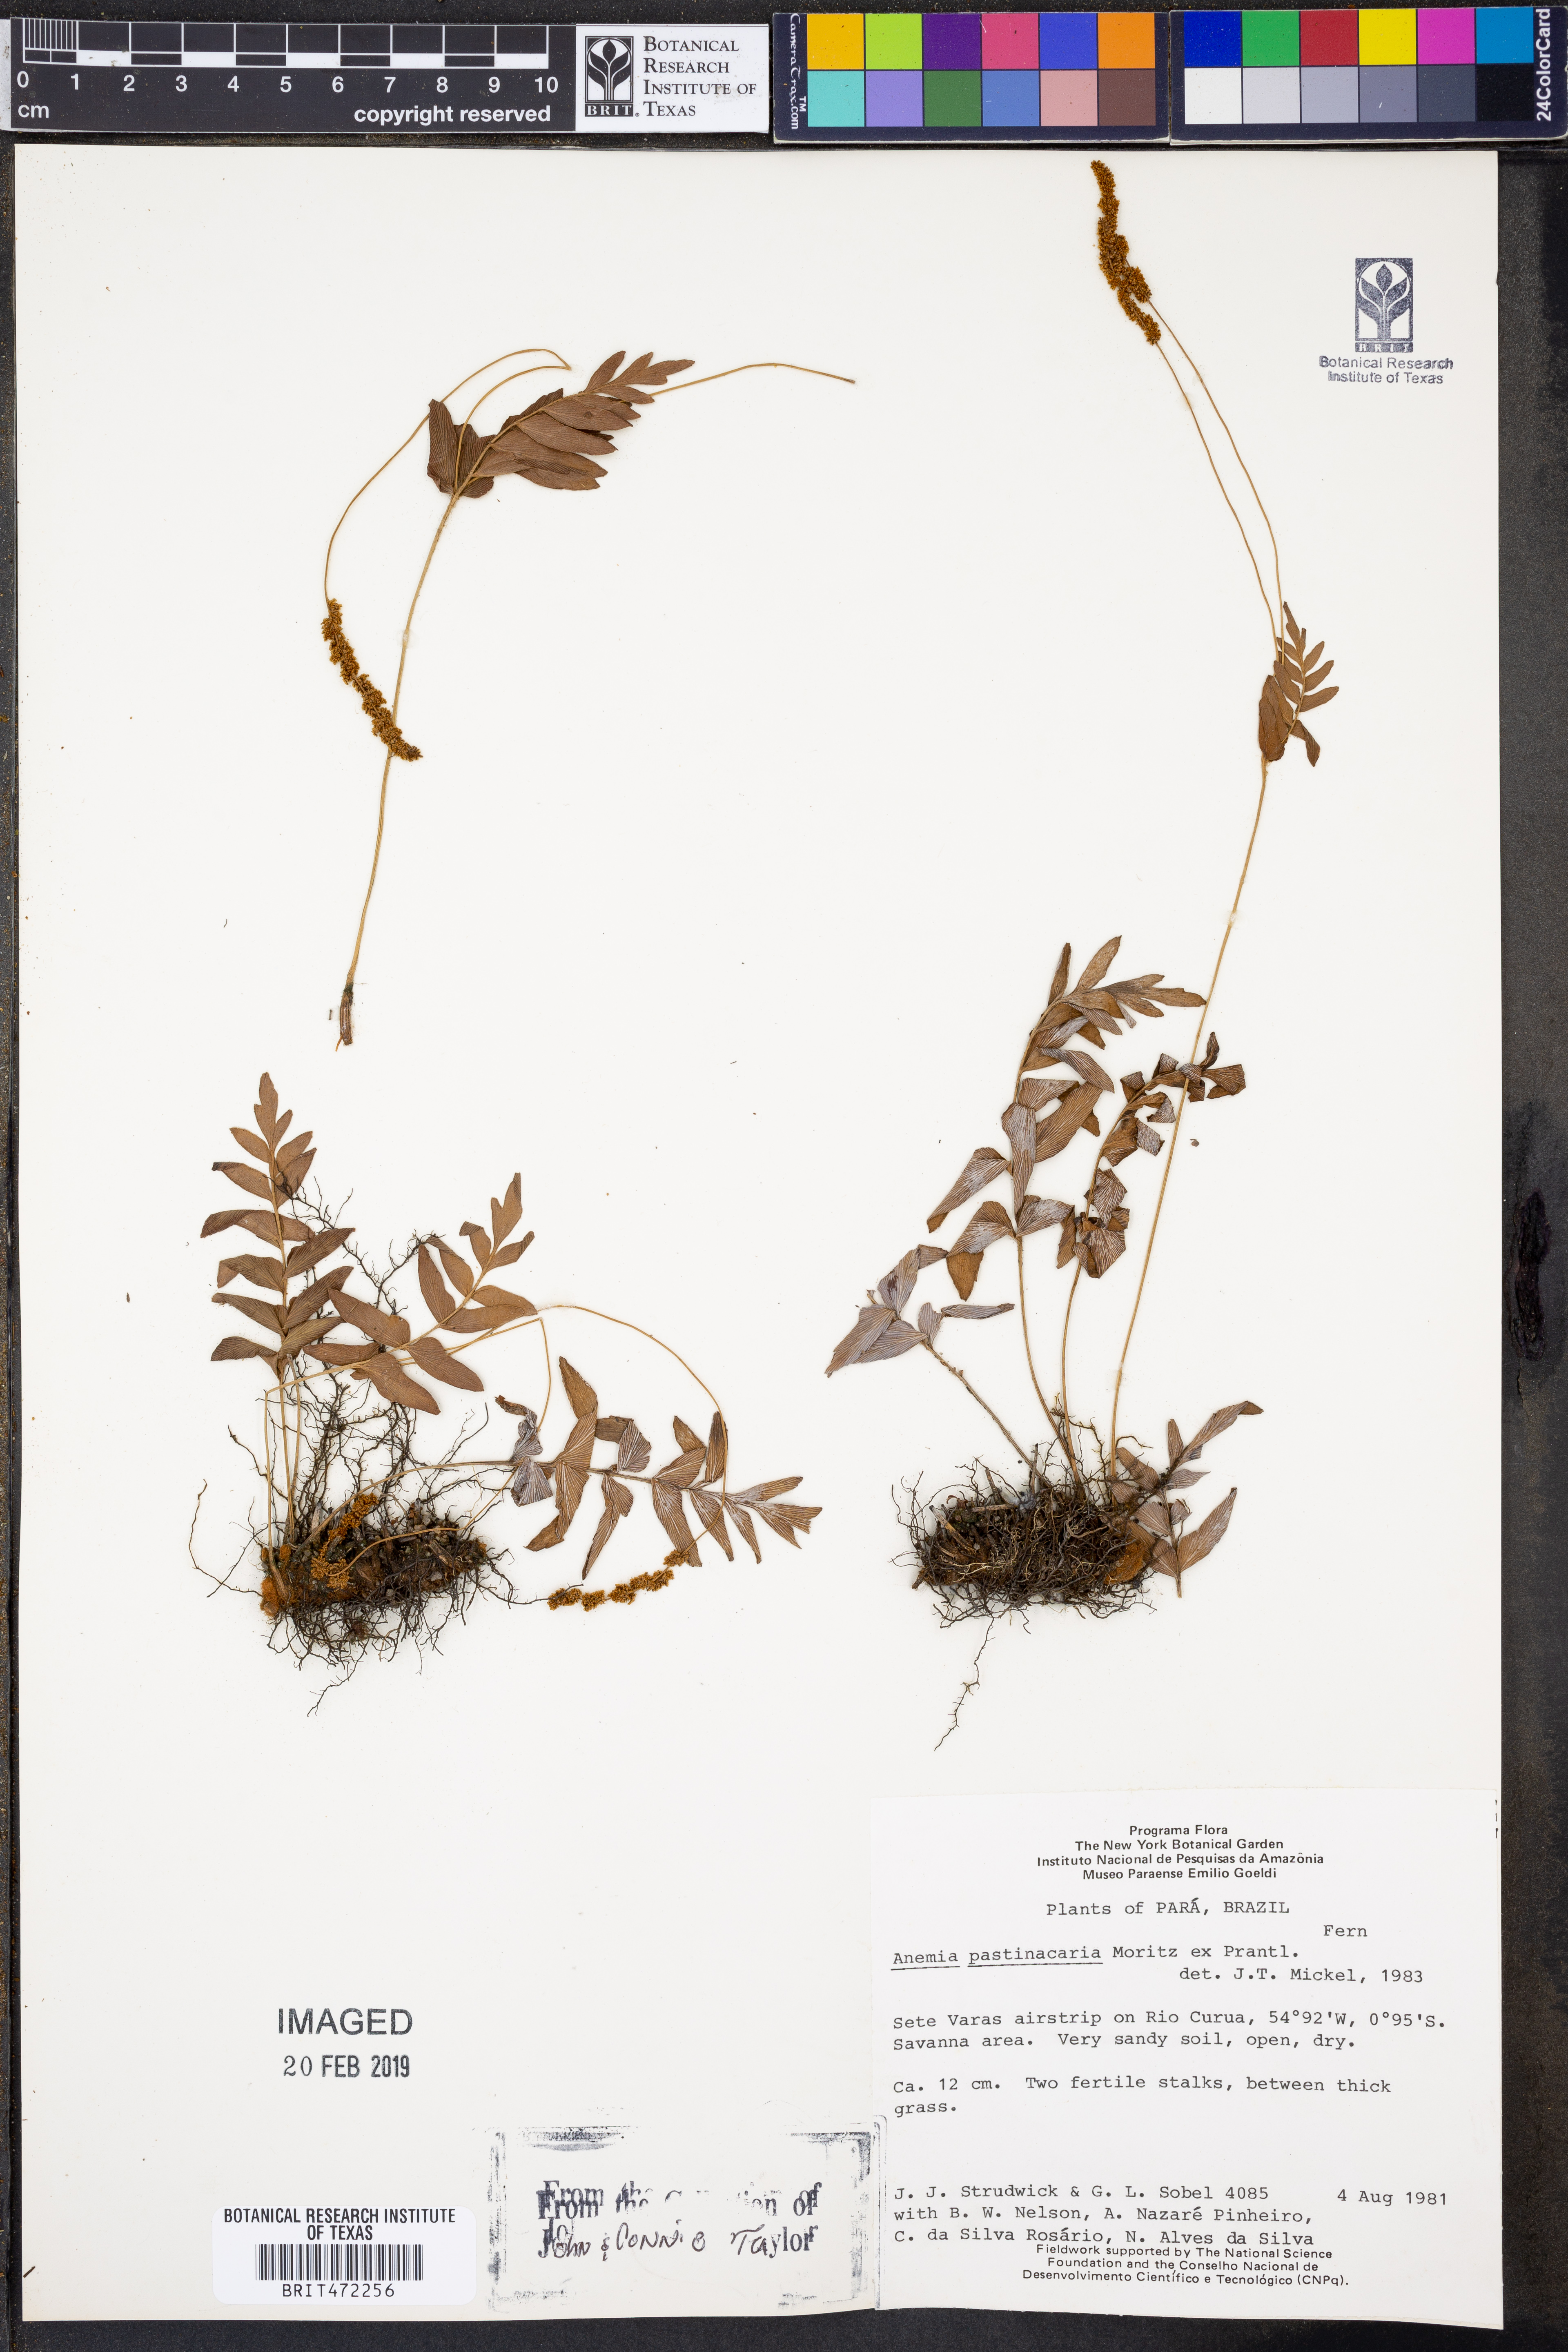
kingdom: Plantae
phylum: Tracheophyta
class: Polypodiopsida
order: Schizaeales
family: Anemiaceae
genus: Anemia
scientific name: Anemia hispida
